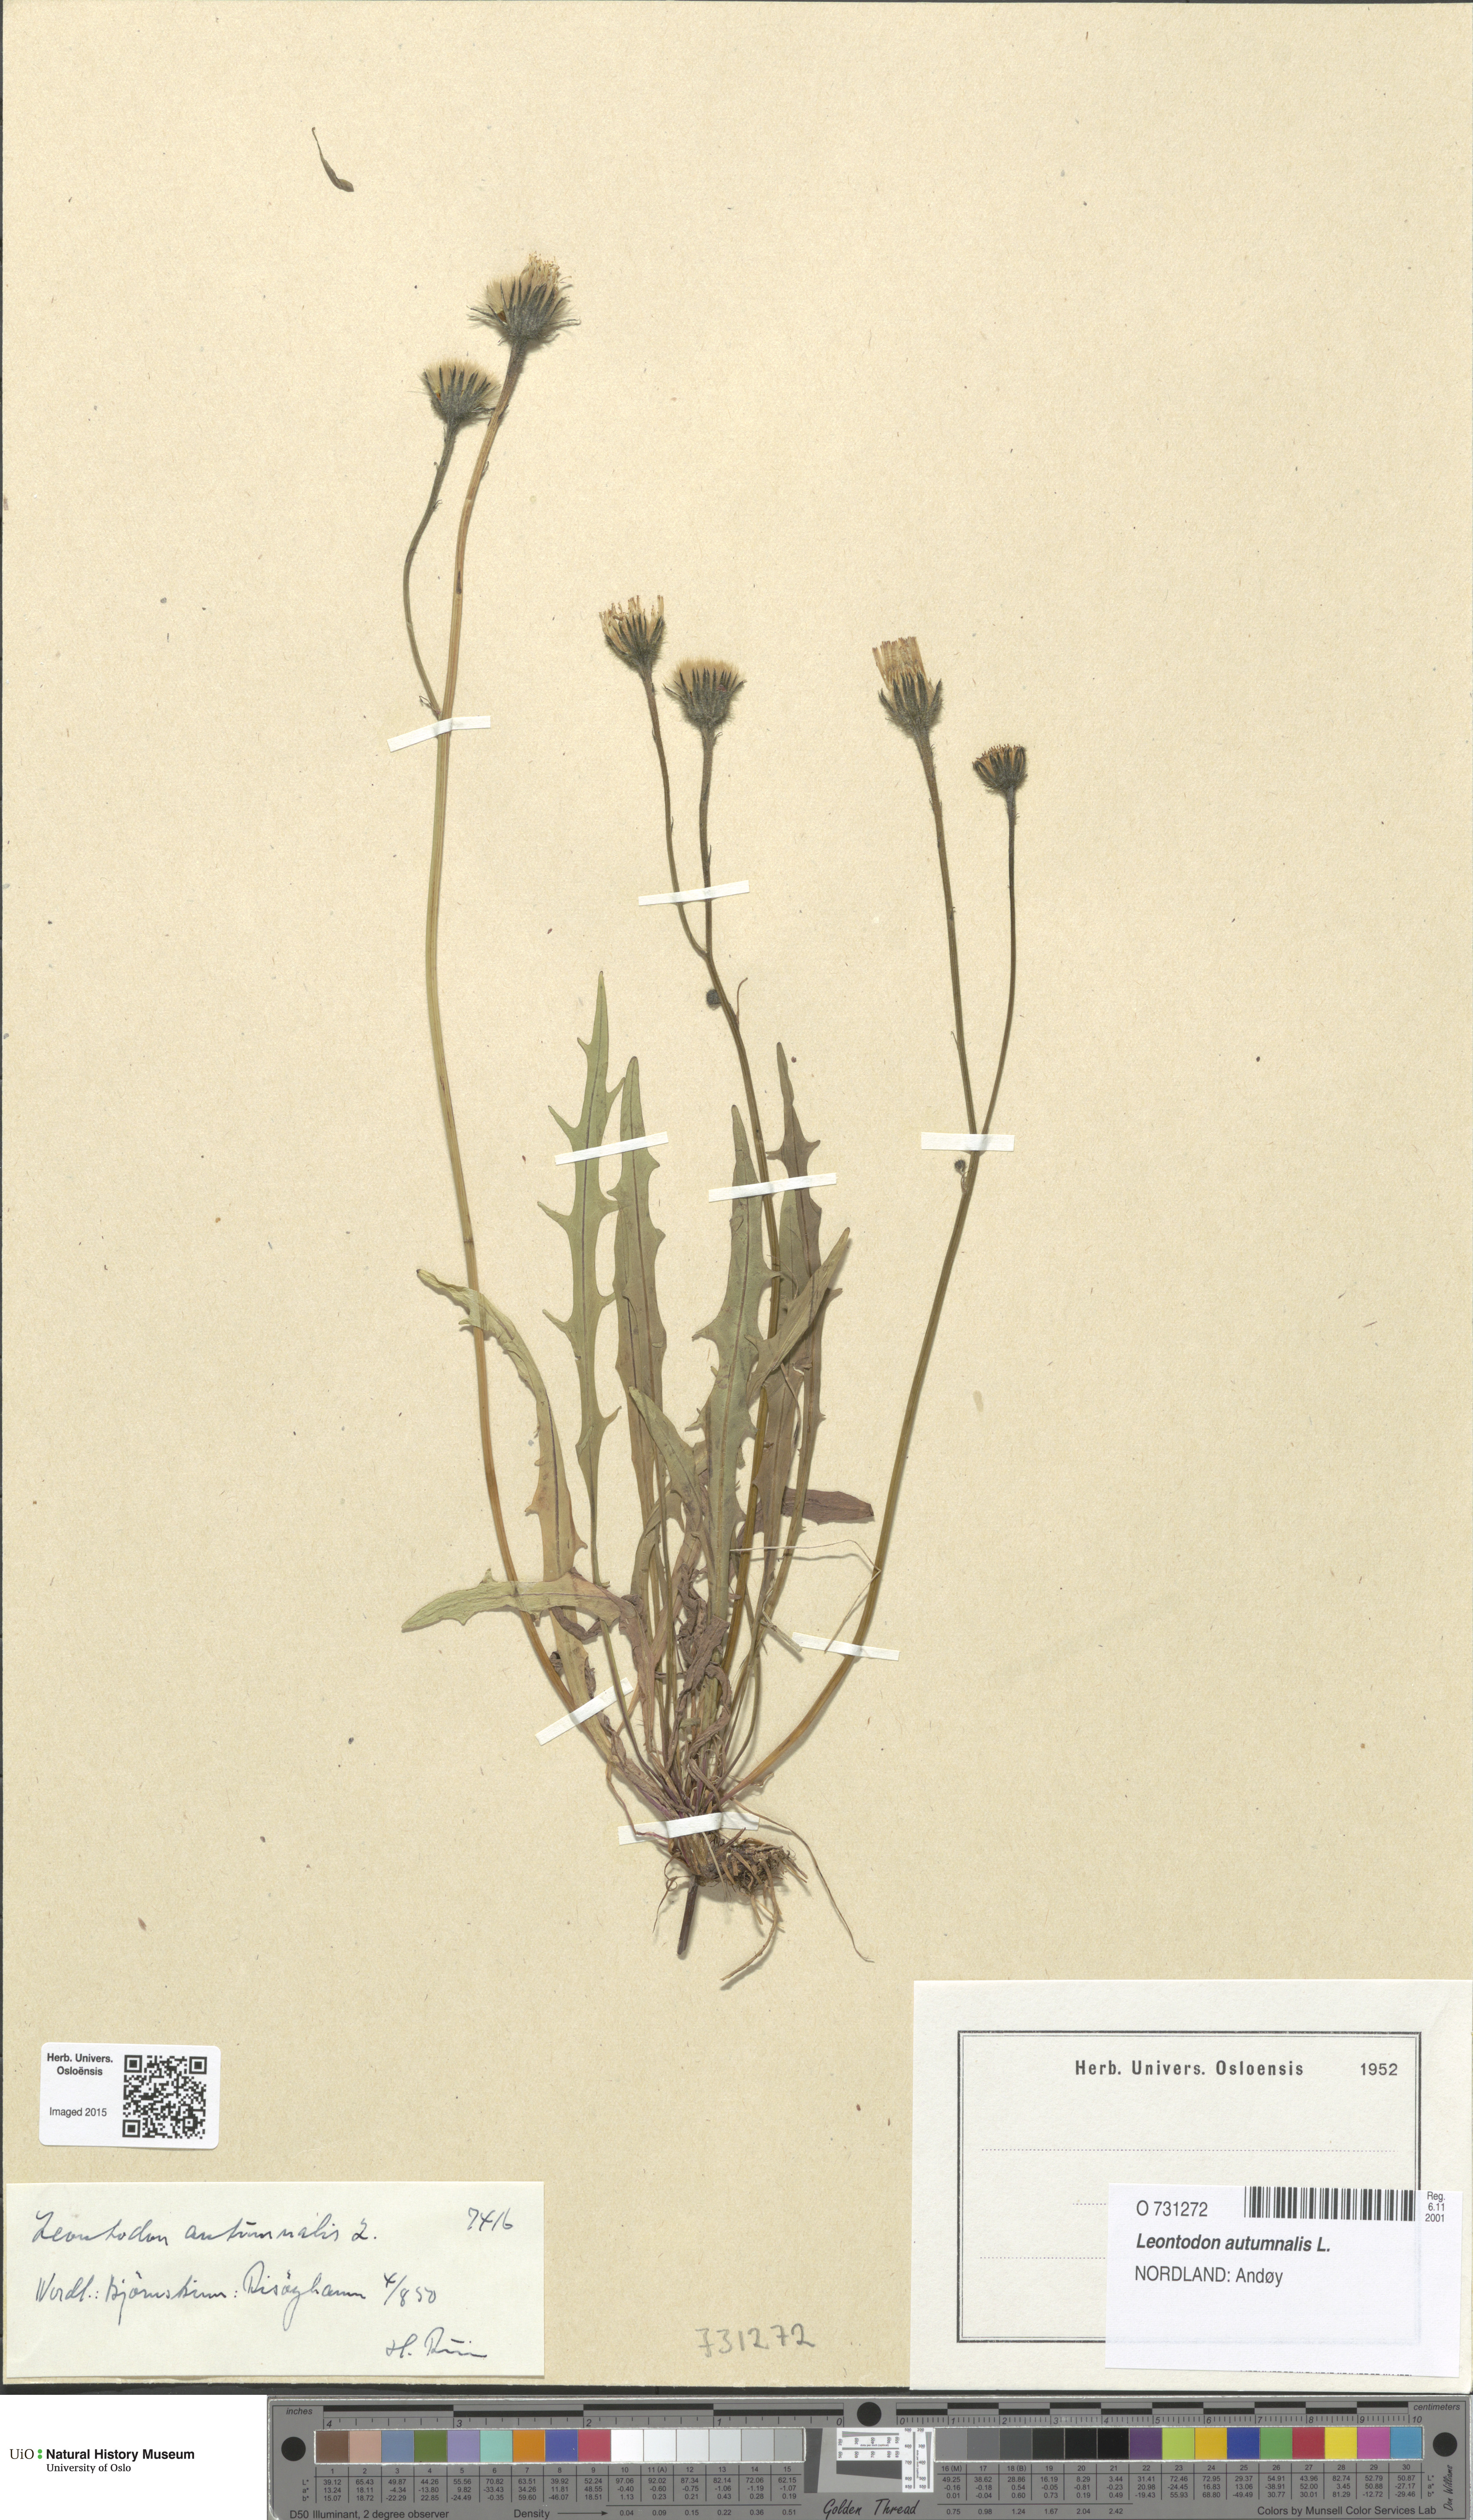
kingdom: Plantae
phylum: Tracheophyta
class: Magnoliopsida
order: Asterales
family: Asteraceae
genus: Scorzoneroides
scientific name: Scorzoneroides autumnalis
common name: Autumn hawkbit
